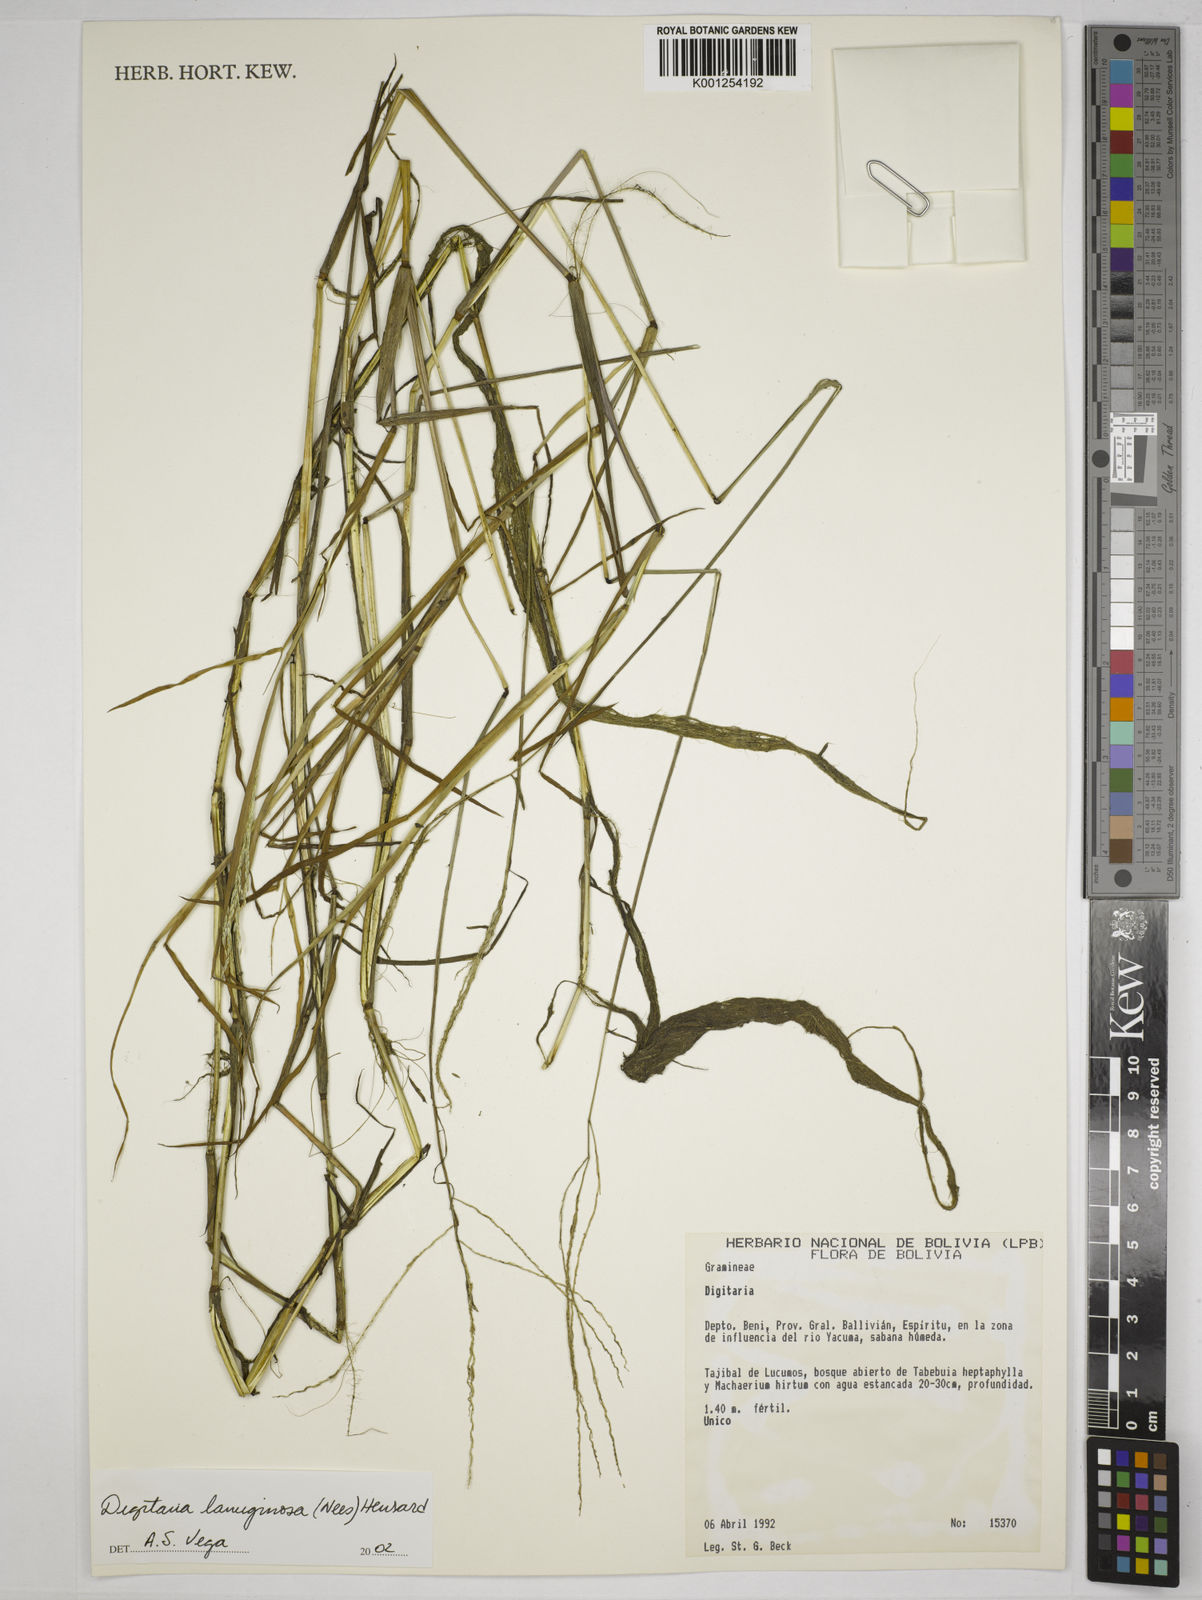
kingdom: Plantae
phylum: Tracheophyta
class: Liliopsida
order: Poales
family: Poaceae
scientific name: Poaceae
